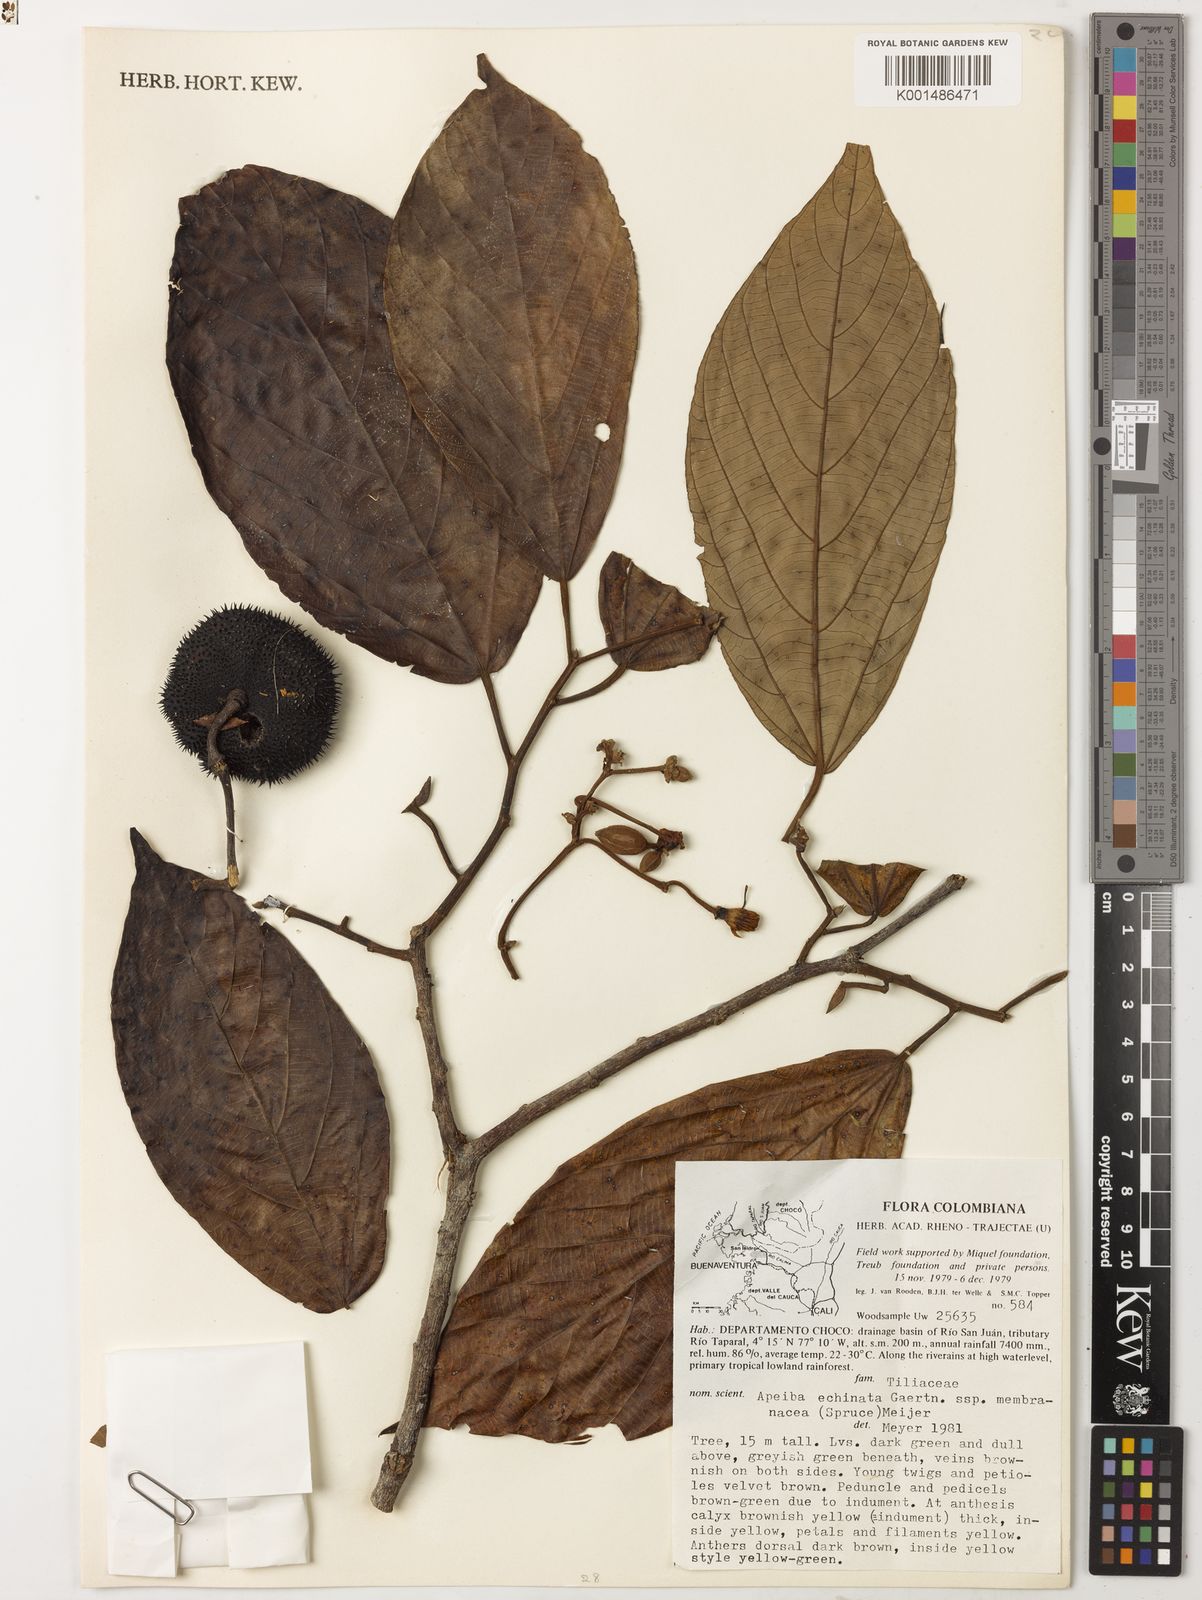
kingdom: Plantae
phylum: Tracheophyta
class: Magnoliopsida
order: Malvales
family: Malvaceae
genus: Apeiba
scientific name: Apeiba petoumo
